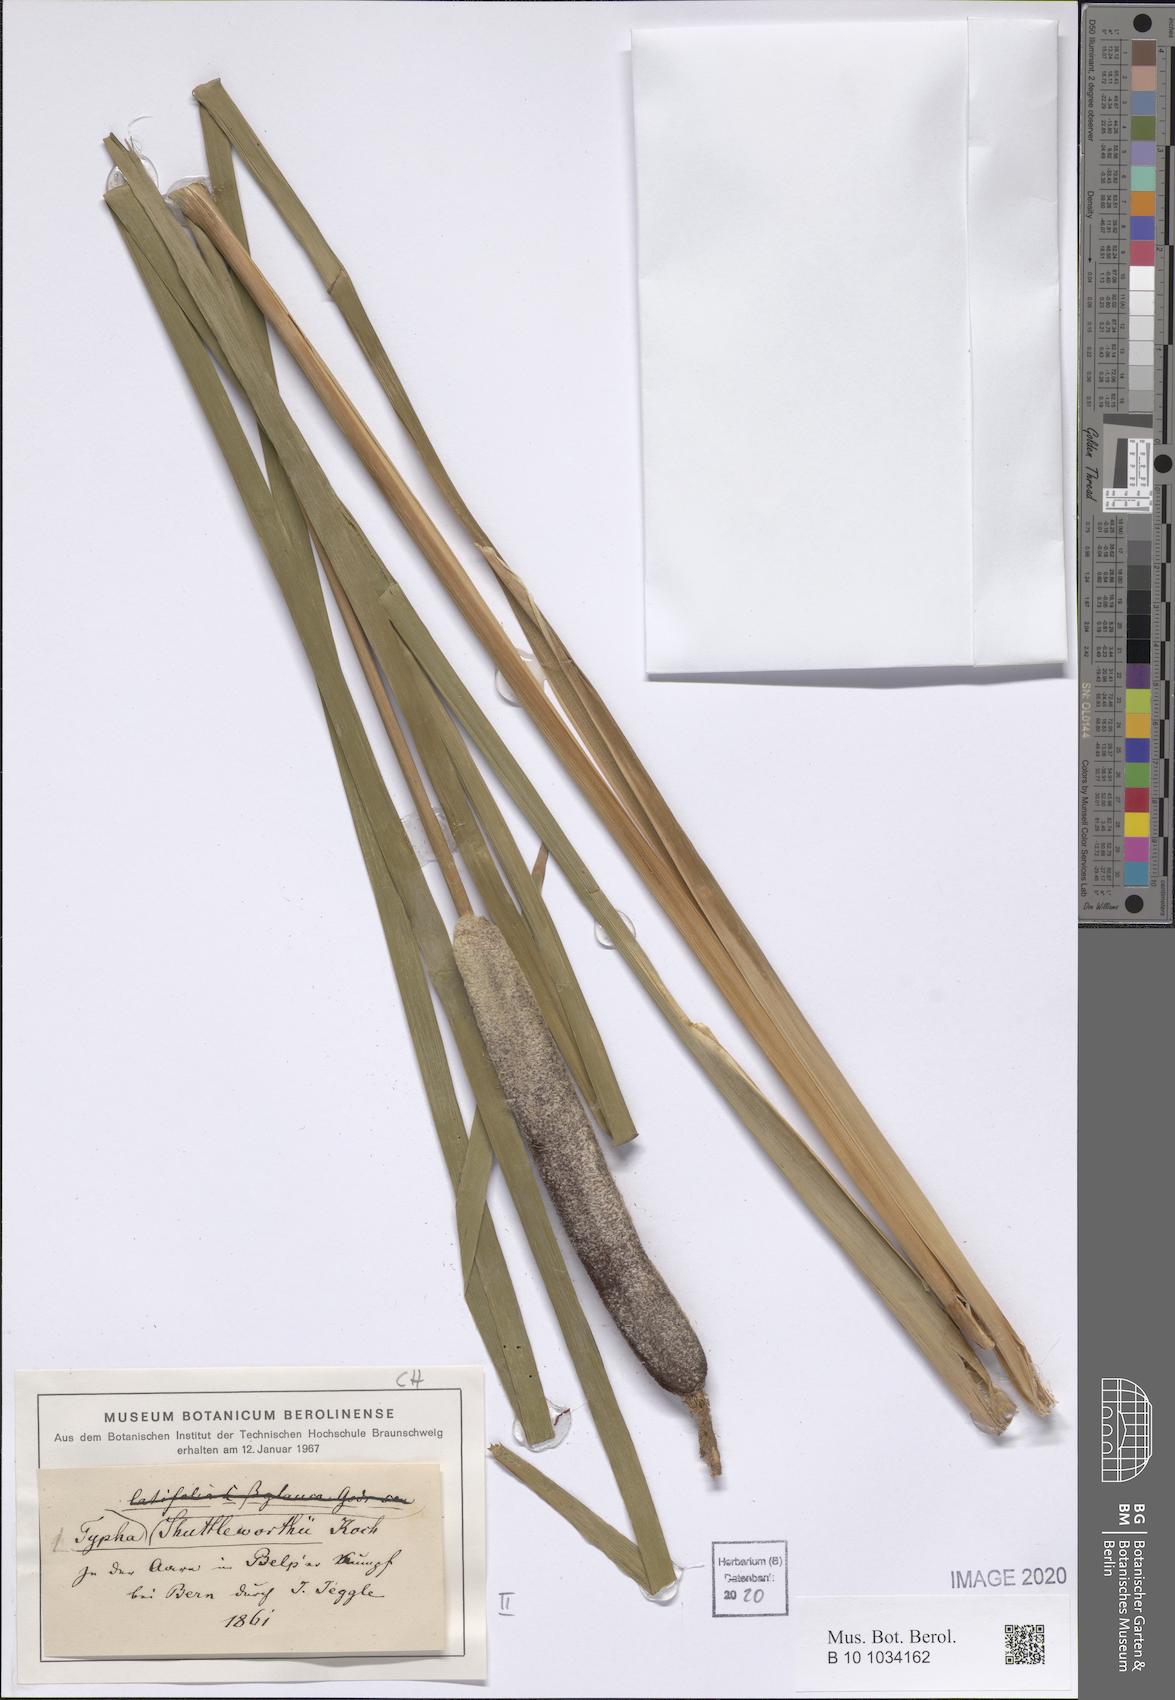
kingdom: Plantae
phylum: Tracheophyta
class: Liliopsida
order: Poales
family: Typhaceae
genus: Typha
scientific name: Typha shuttleworthii
